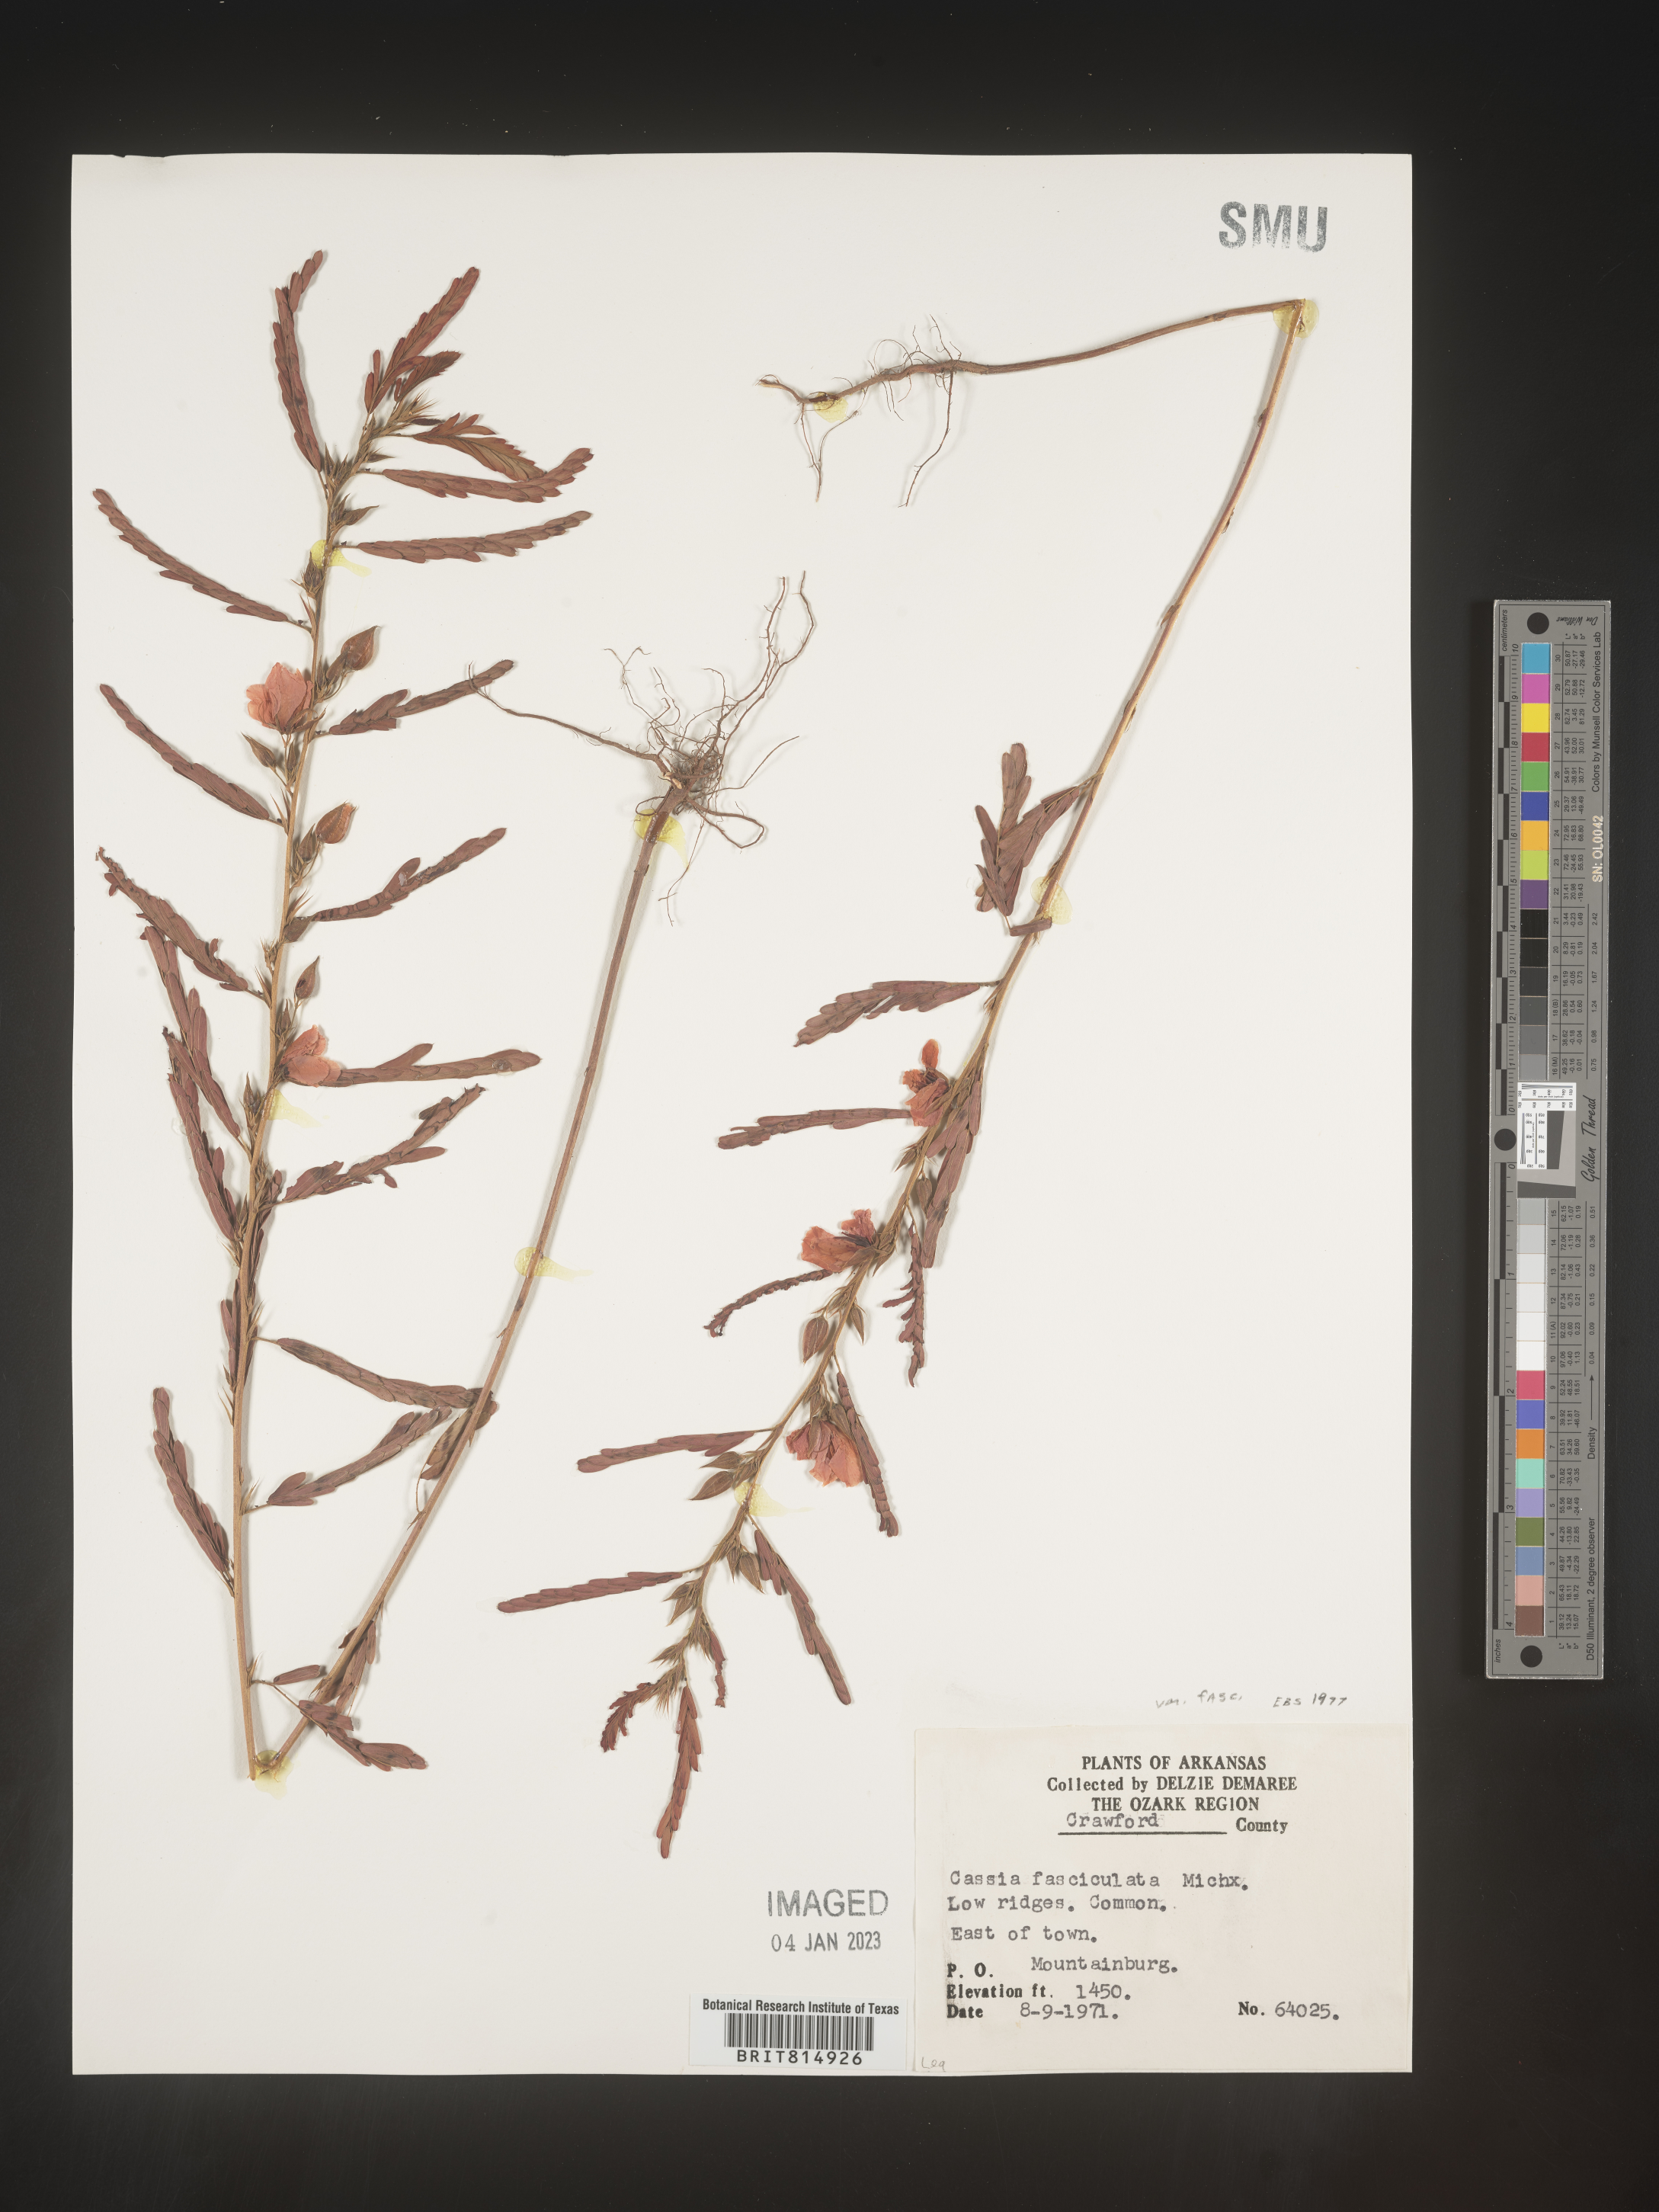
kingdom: Plantae
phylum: Tracheophyta
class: Magnoliopsida
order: Fabales
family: Fabaceae
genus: Chamaecrista
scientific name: Chamaecrista fasciculata
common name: Golden cassia
